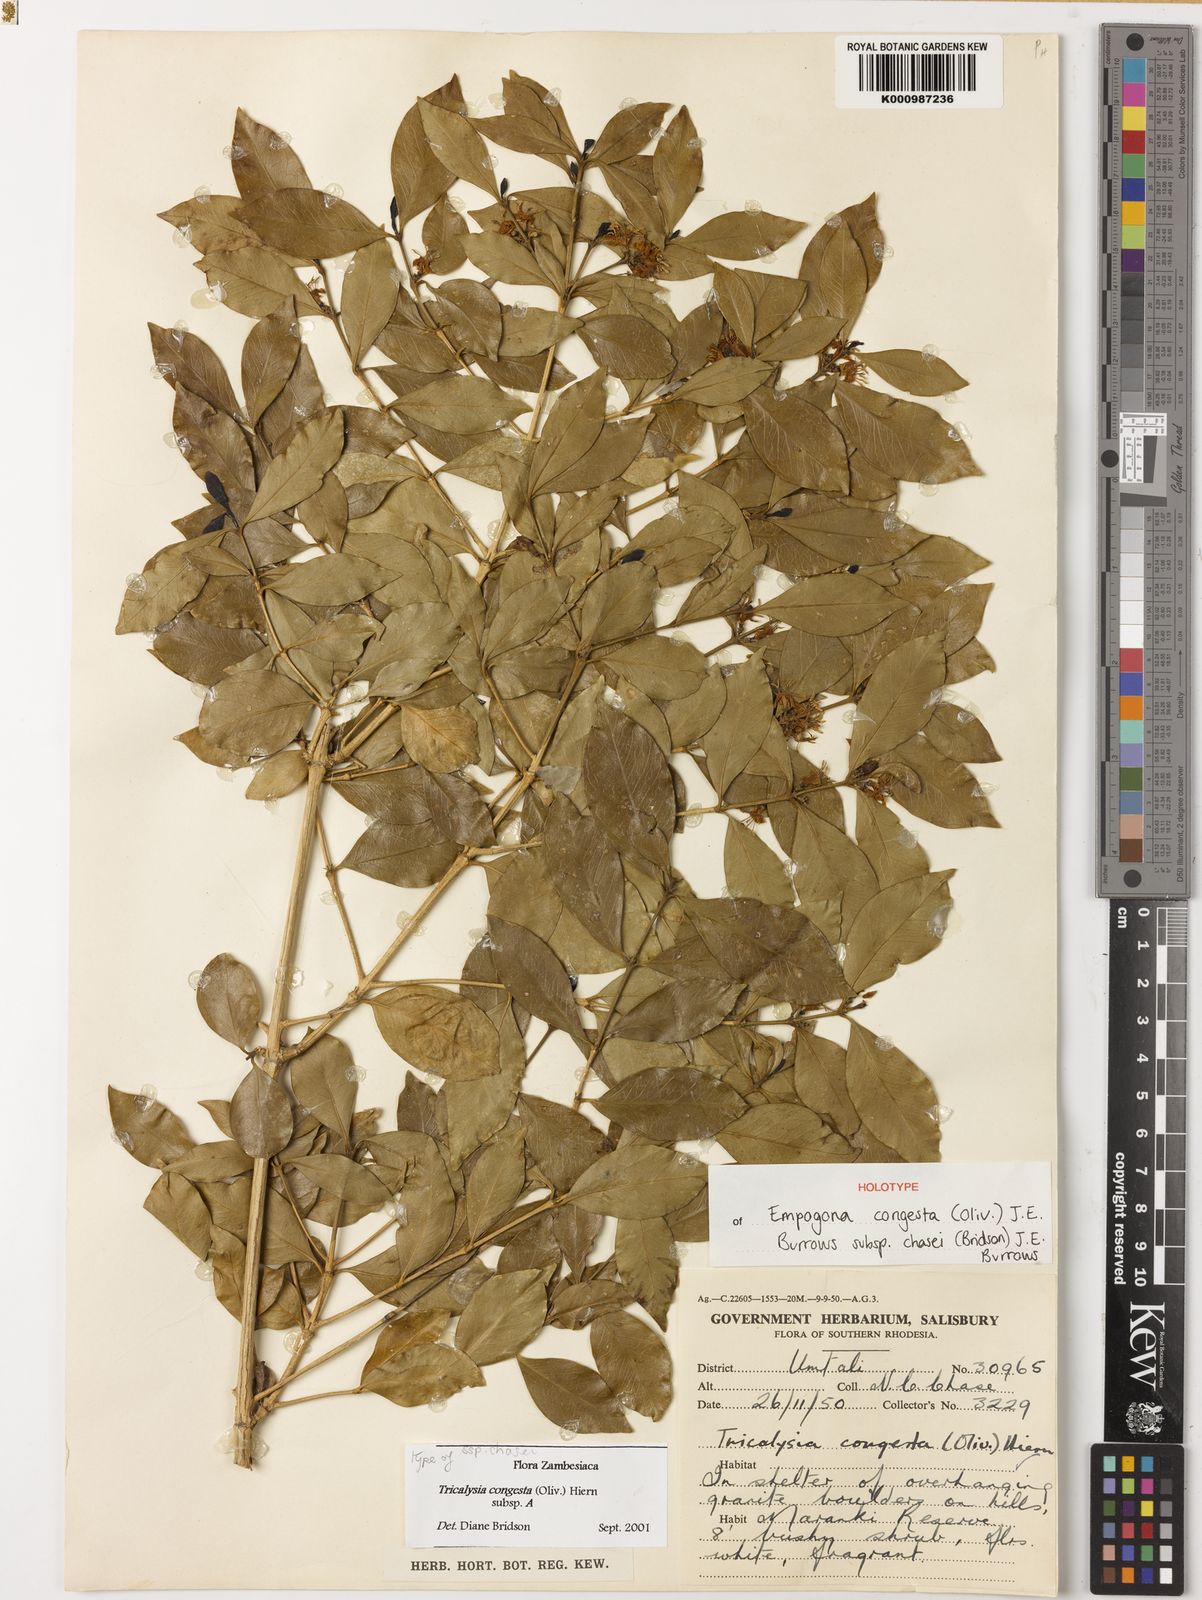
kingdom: Plantae
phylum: Tracheophyta
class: Magnoliopsida
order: Gentianales
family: Rubiaceae
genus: Empogona
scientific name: Empogona
